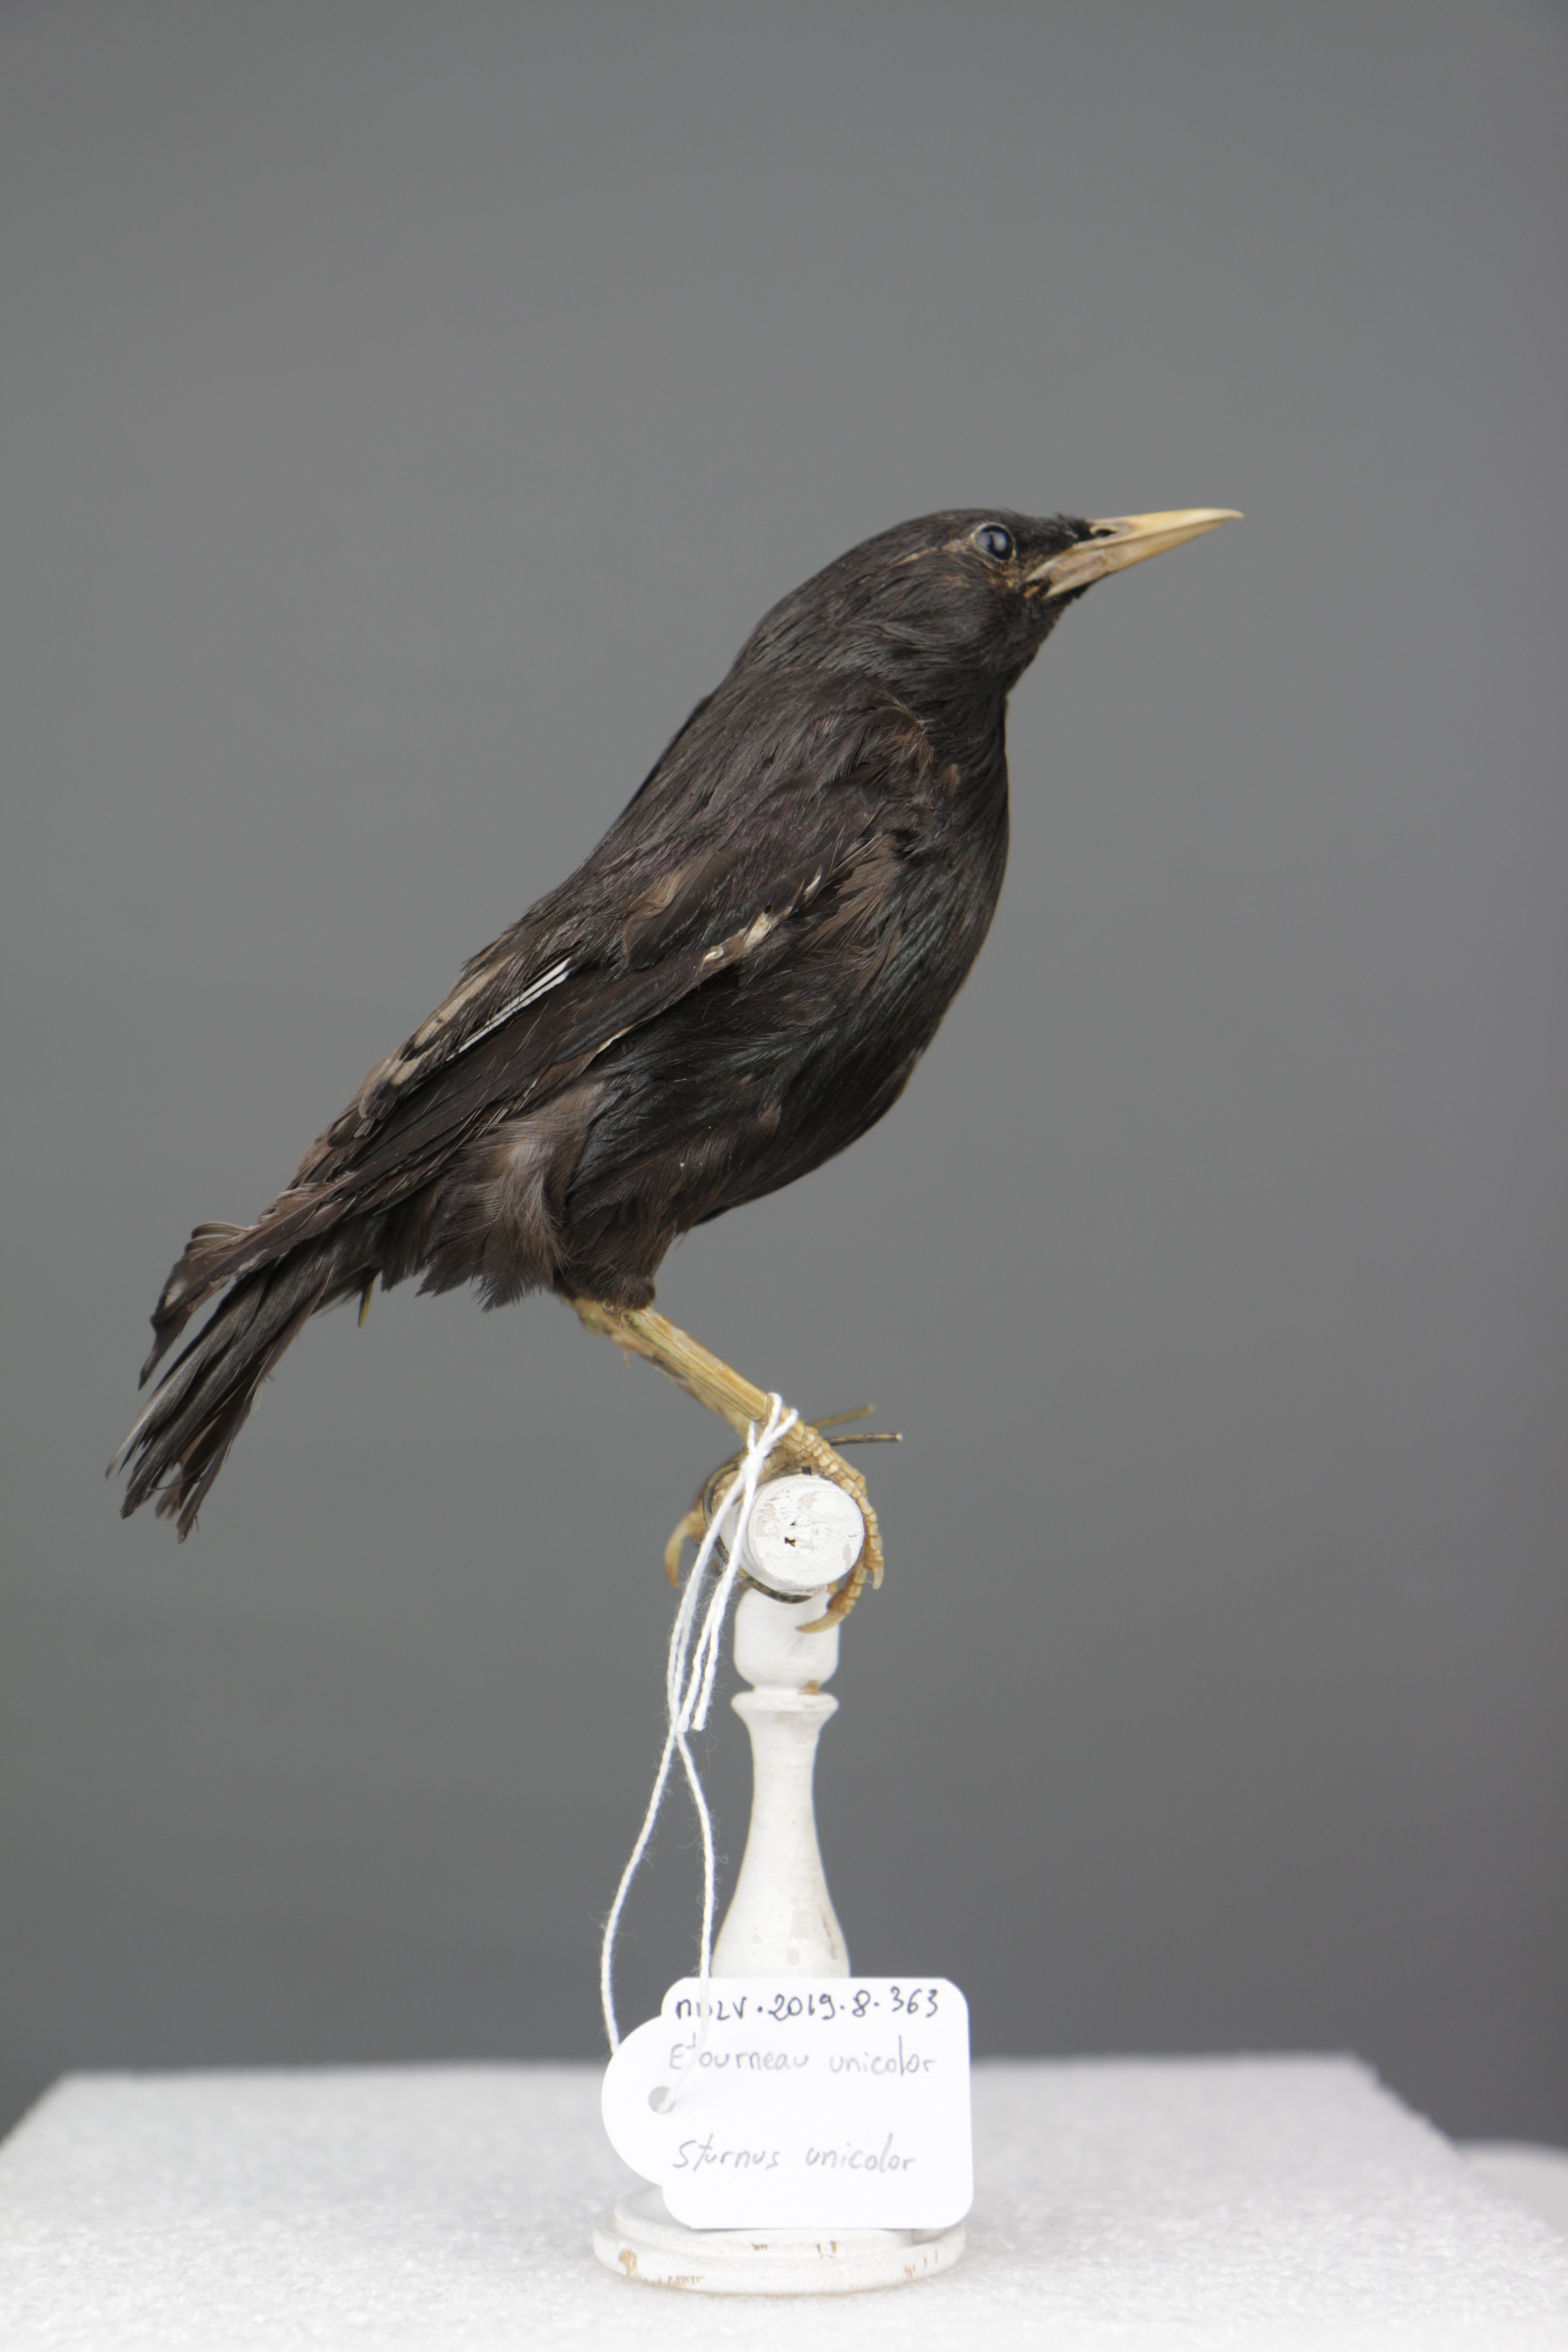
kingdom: Animalia
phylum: Chordata
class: Aves
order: Passeriformes
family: Sturnidae
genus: Sturnus
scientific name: Sturnus unicolor
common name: Spotless starling
